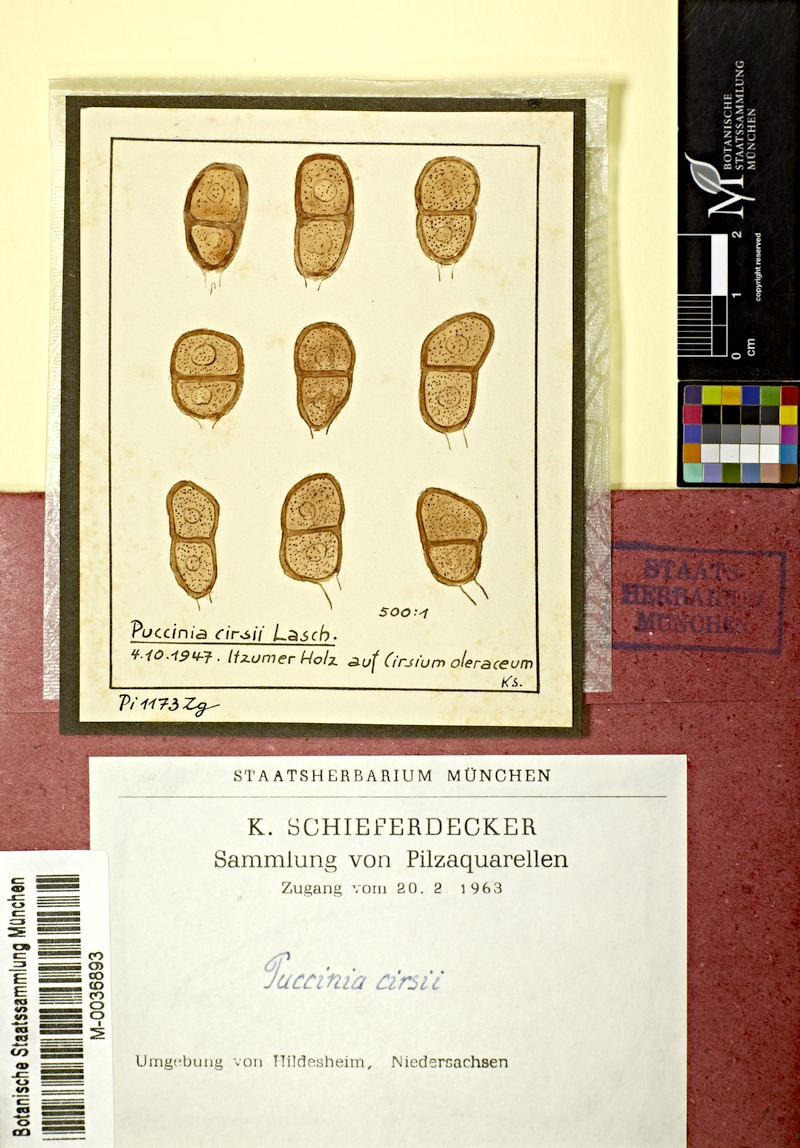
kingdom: Fungi
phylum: Basidiomycota
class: Pucciniomycetes
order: Pucciniales
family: Pucciniaceae
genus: Puccinia
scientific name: Puccinia laschii
